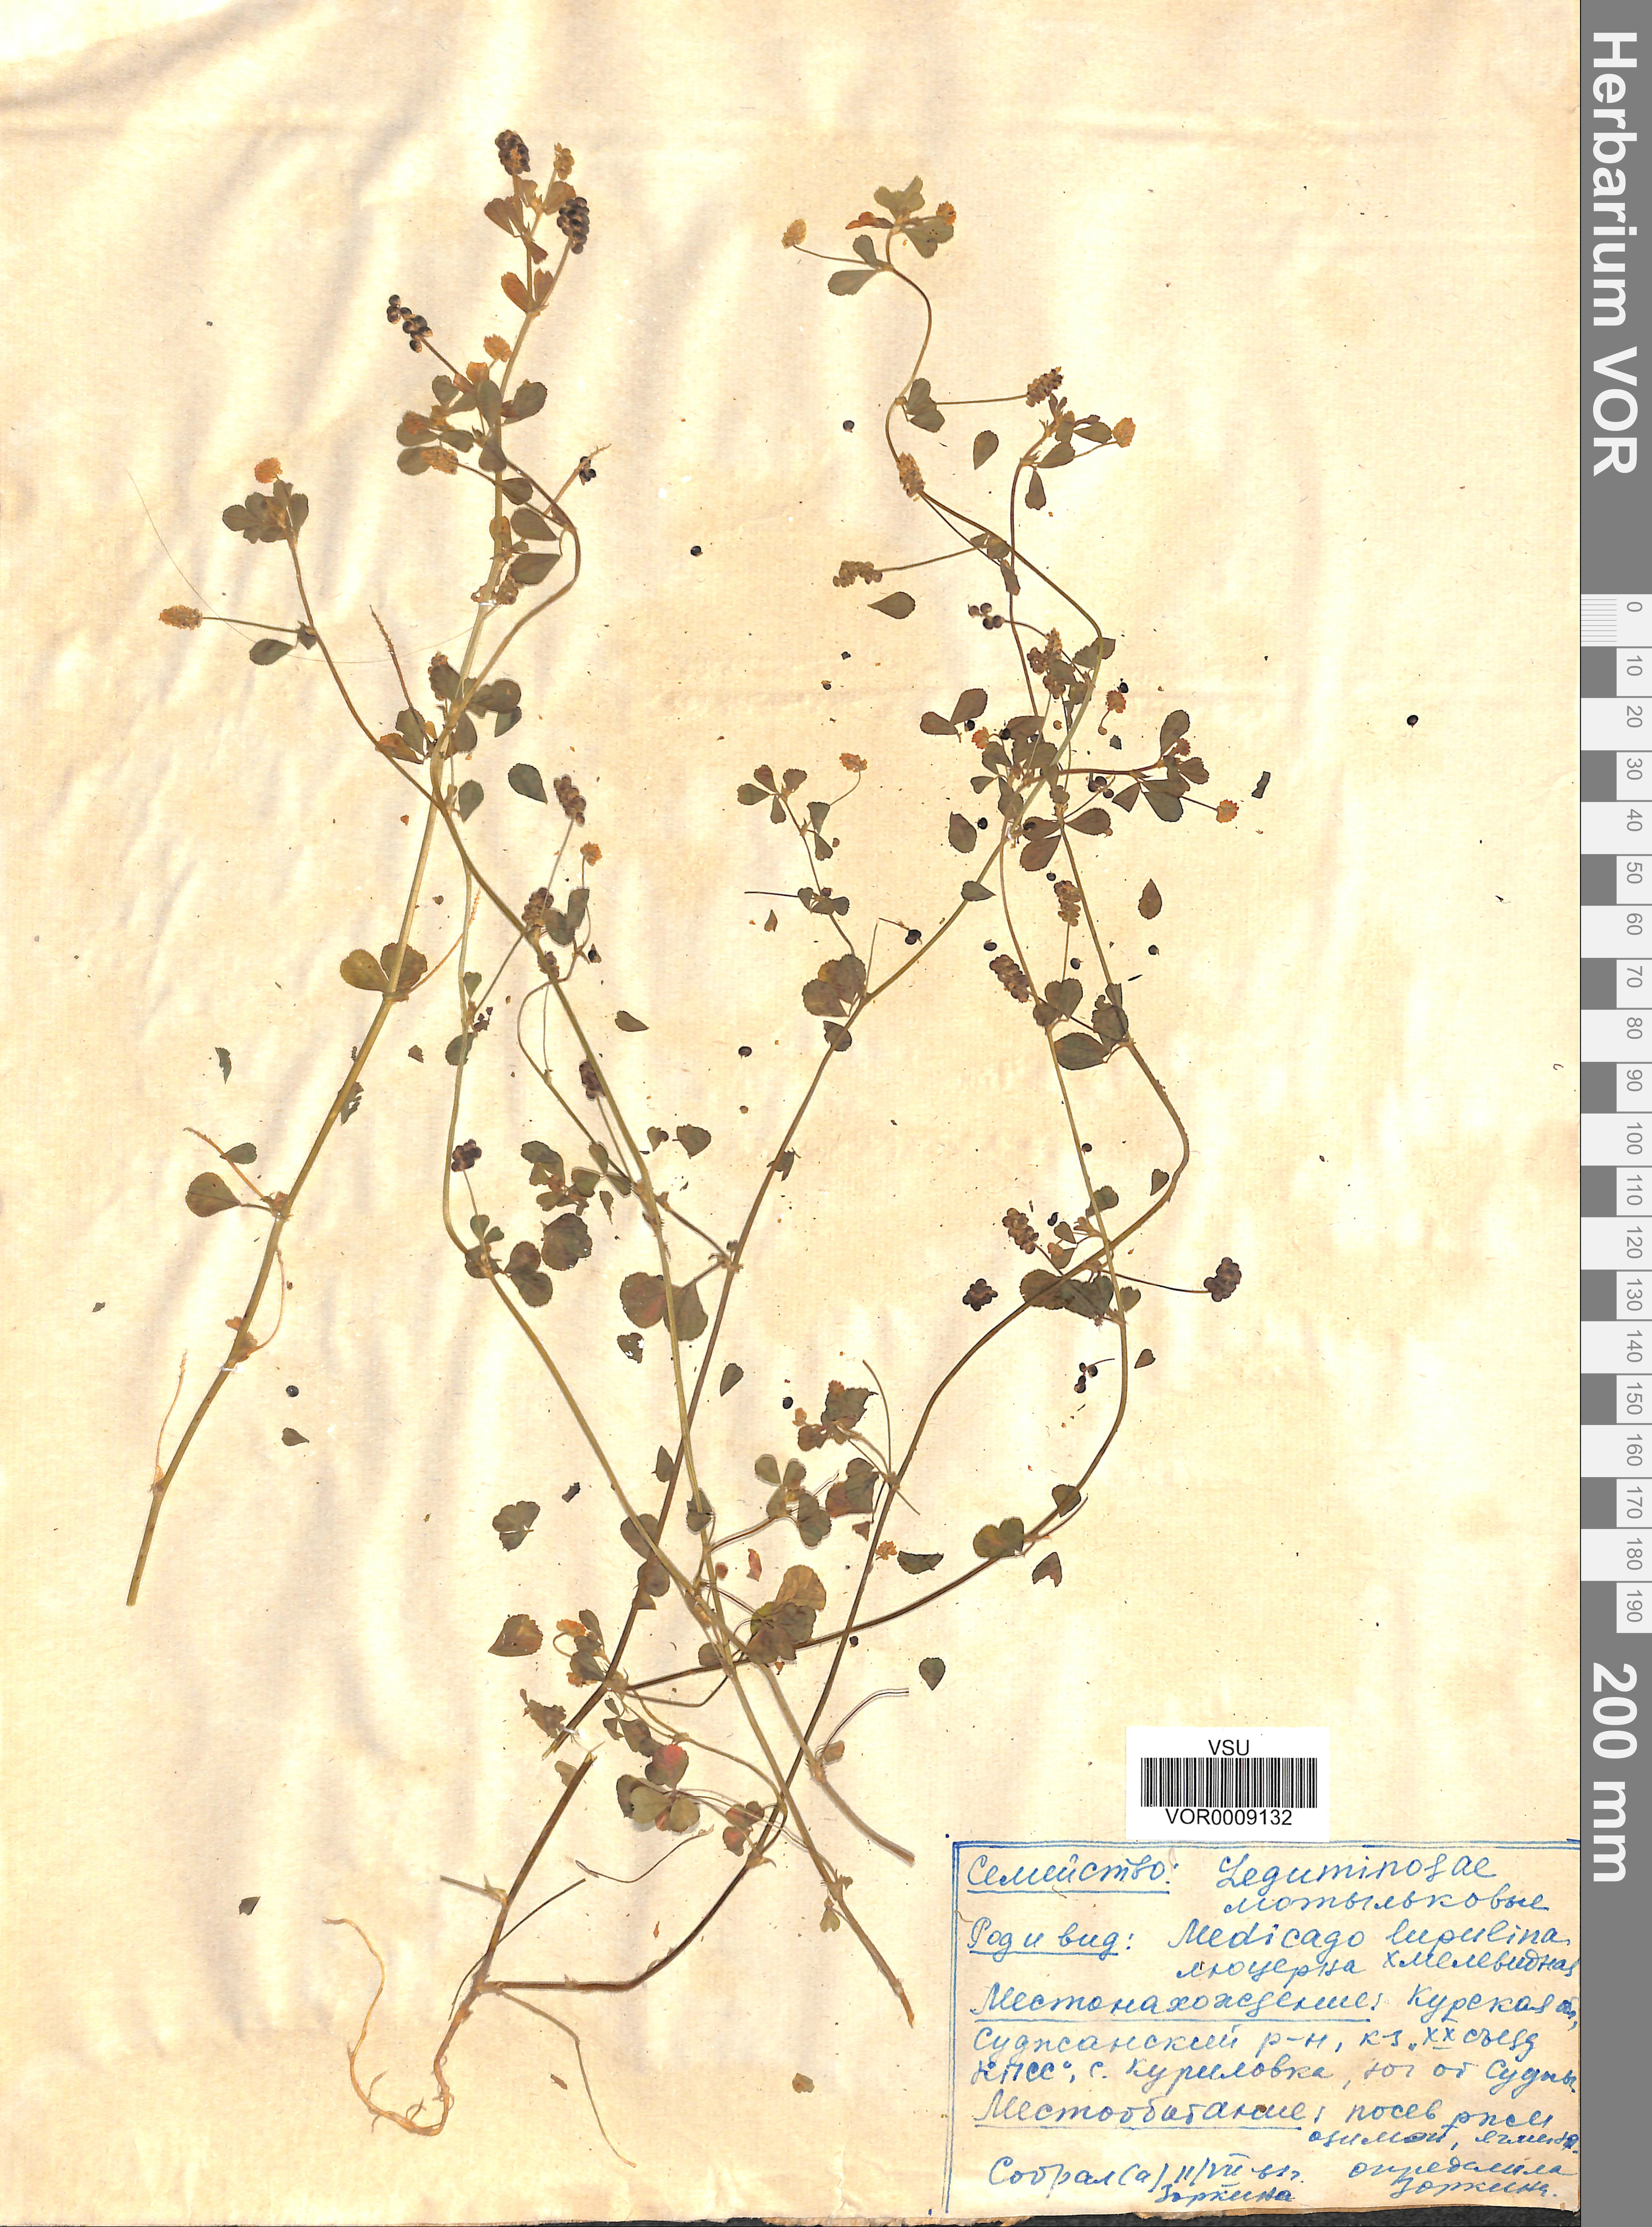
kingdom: Plantae
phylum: Tracheophyta
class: Magnoliopsida
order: Fabales
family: Fabaceae
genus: Medicago
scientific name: Medicago lupulina
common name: Black medick
